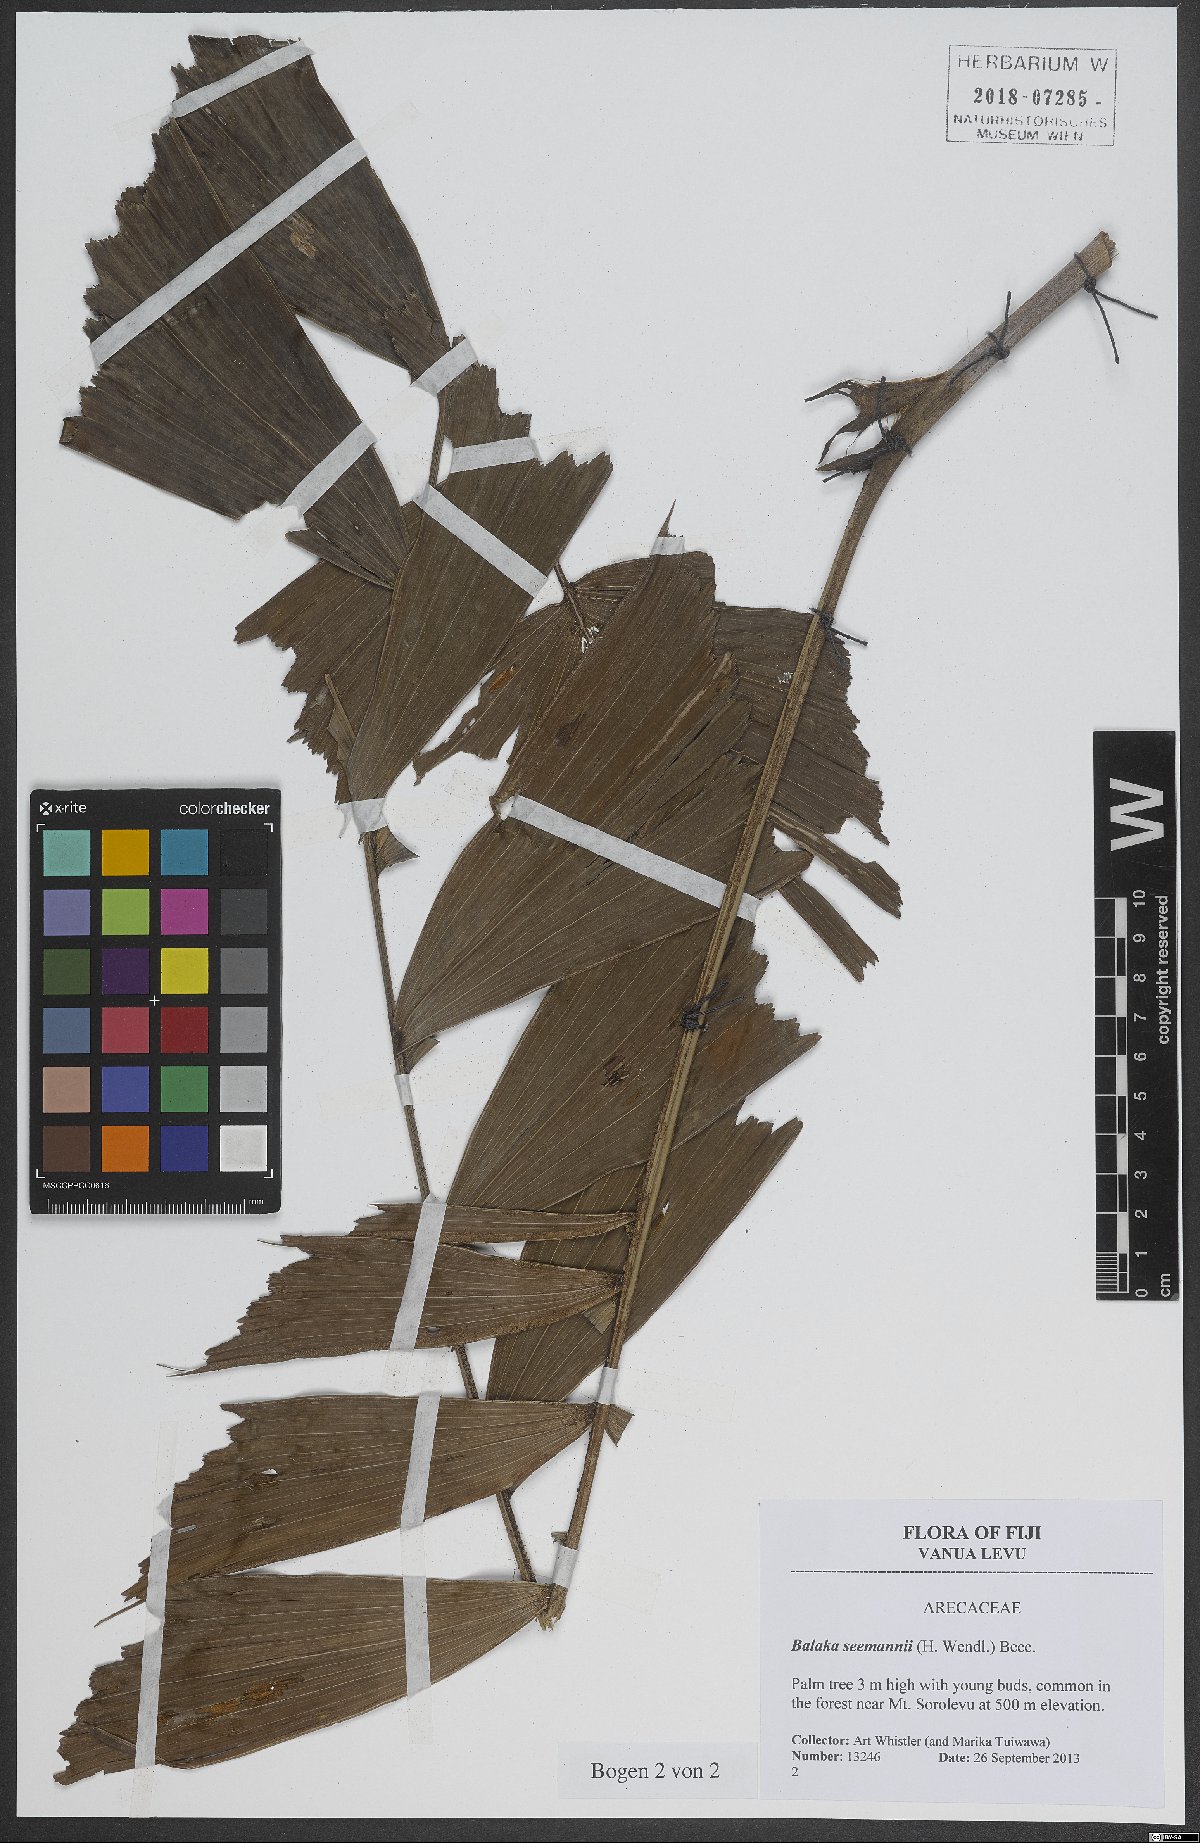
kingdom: Plantae
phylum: Tracheophyta
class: Liliopsida
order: Arecales
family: Arecaceae
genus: Balaka
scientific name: Balaka seemannii
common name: Balaka palm
